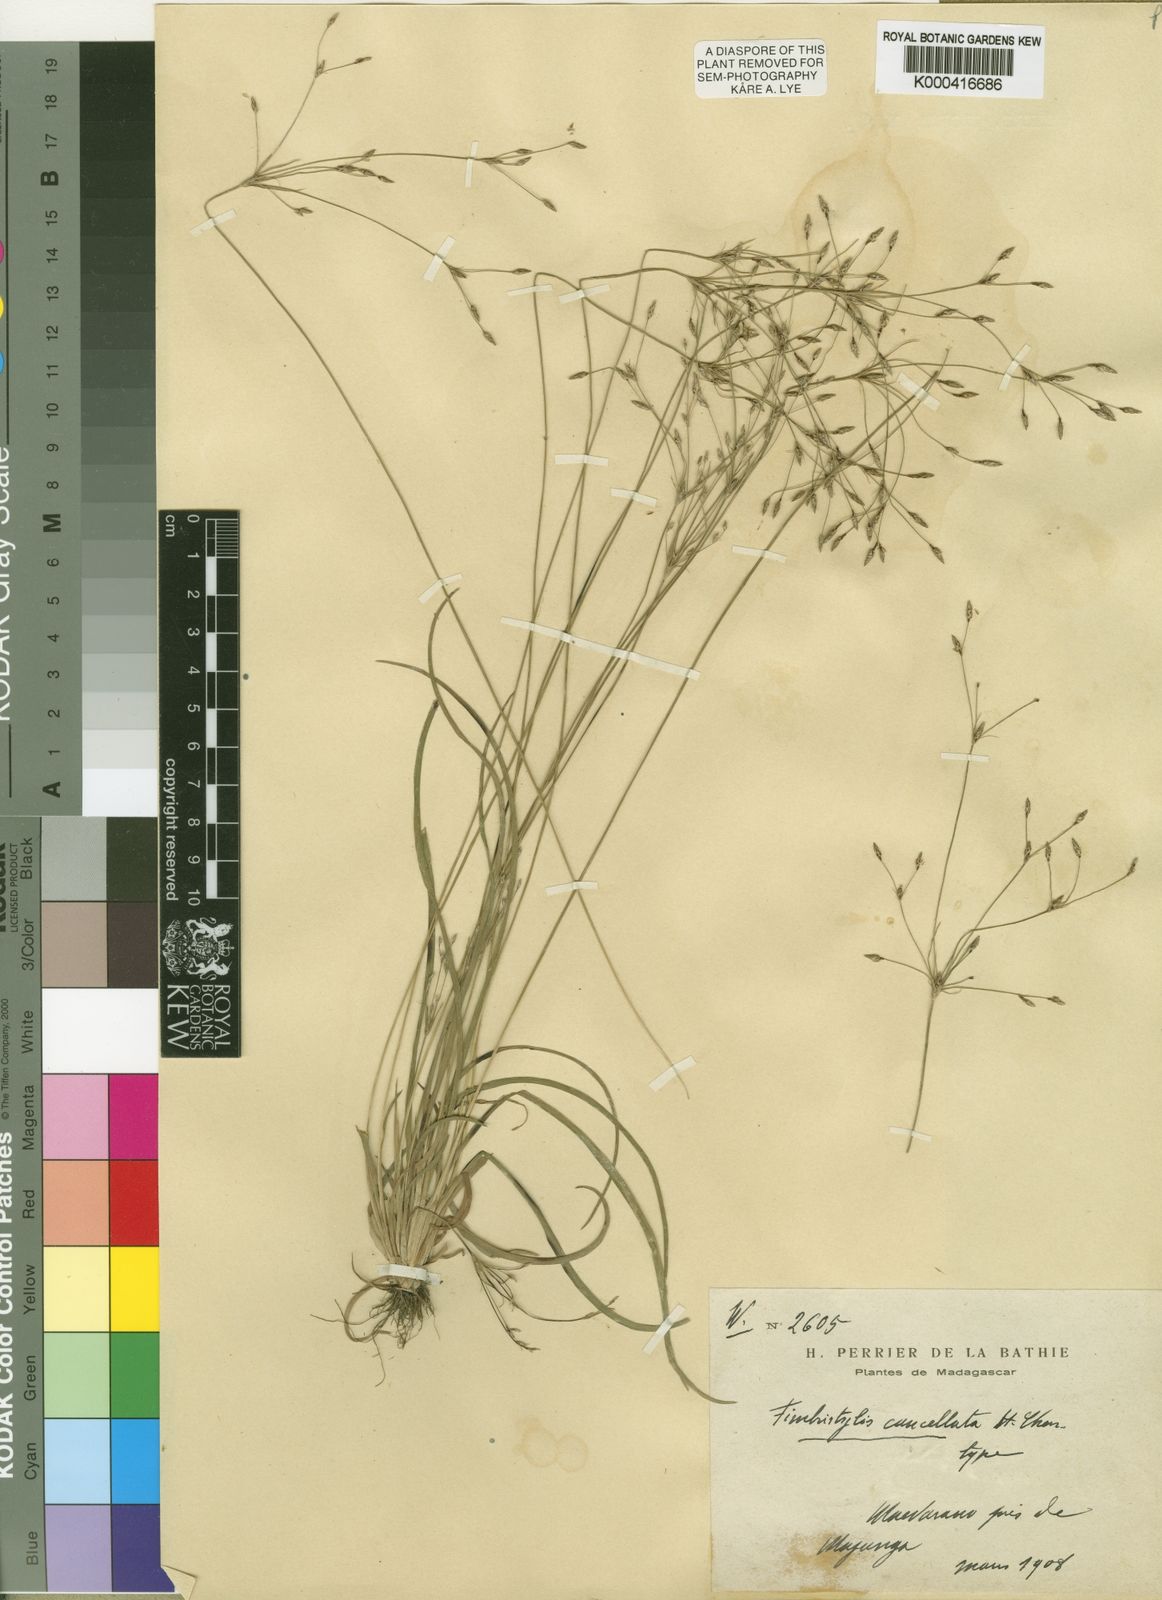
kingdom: Plantae
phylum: Tracheophyta
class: Liliopsida
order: Poales
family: Cyperaceae
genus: Fimbristylis
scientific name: Fimbristylis cancellata
